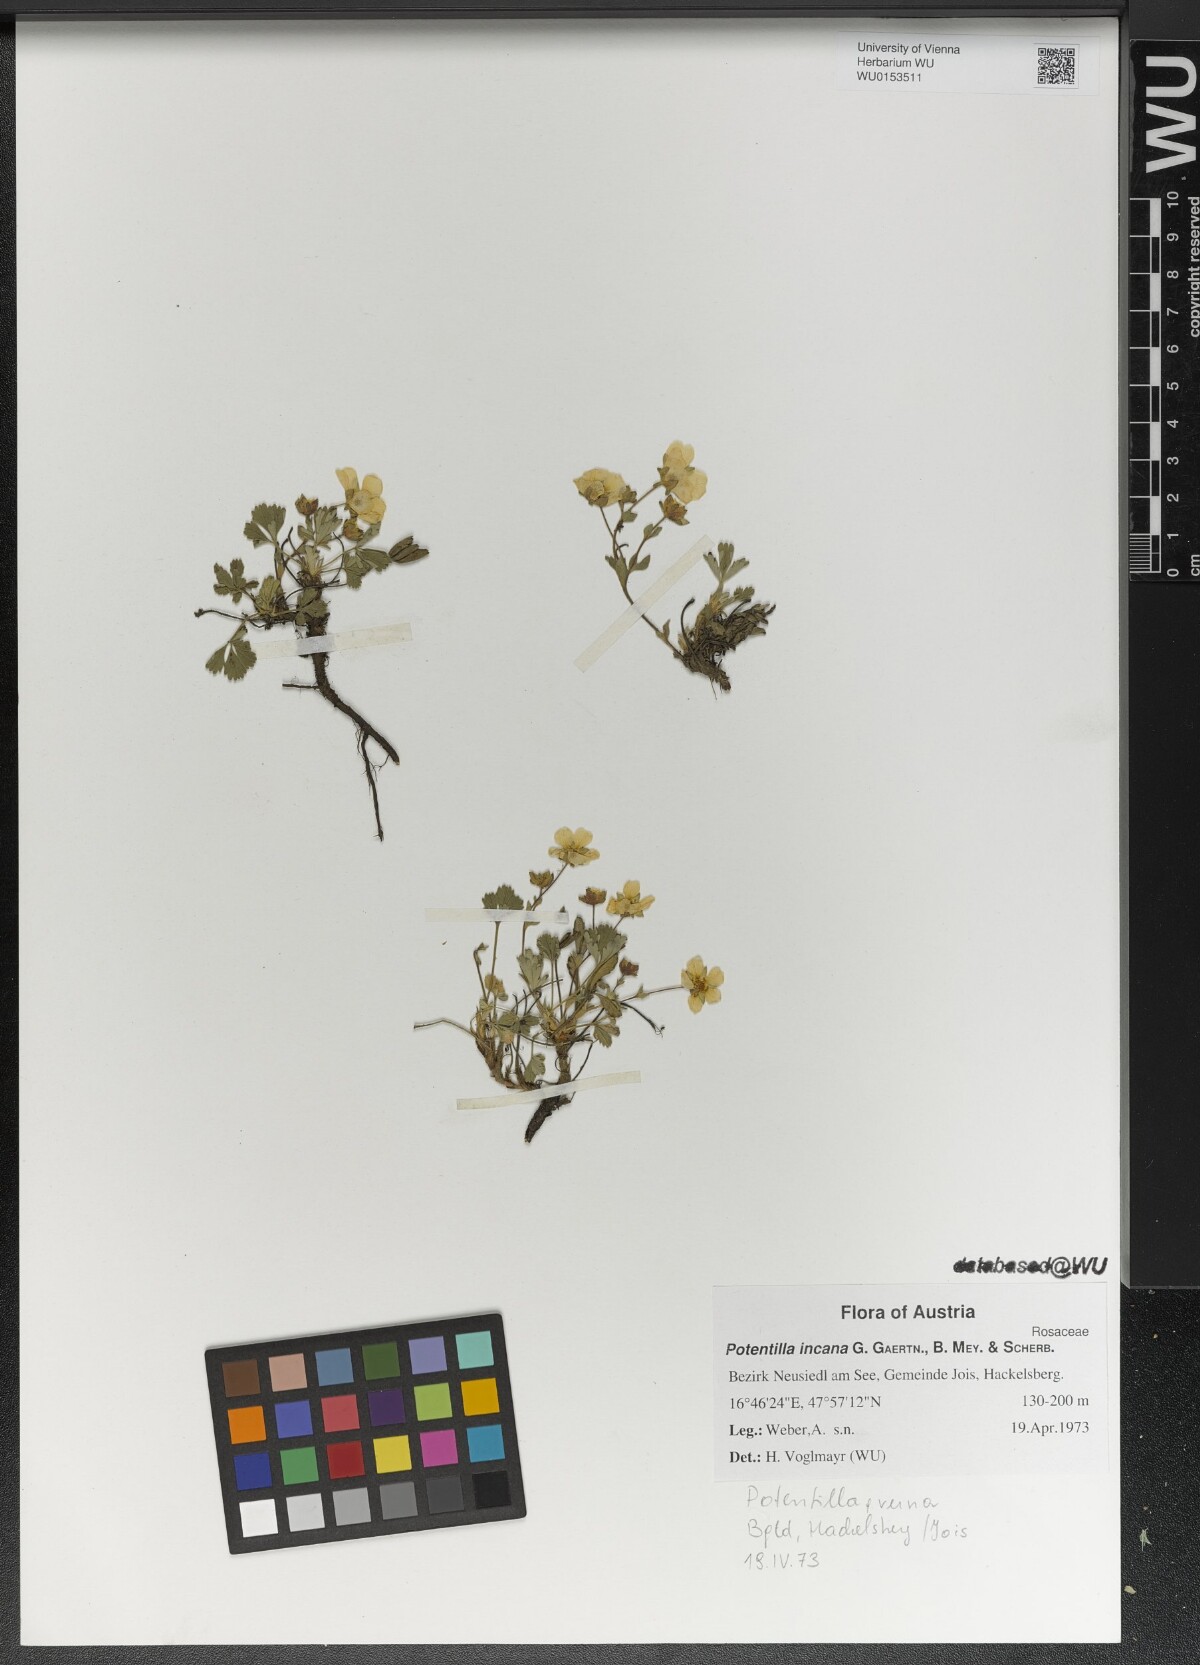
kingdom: Plantae
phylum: Tracheophyta
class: Magnoliopsida
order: Rosales
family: Rosaceae
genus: Potentilla
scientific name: Potentilla cinerea
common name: Ashy cinquefoil
